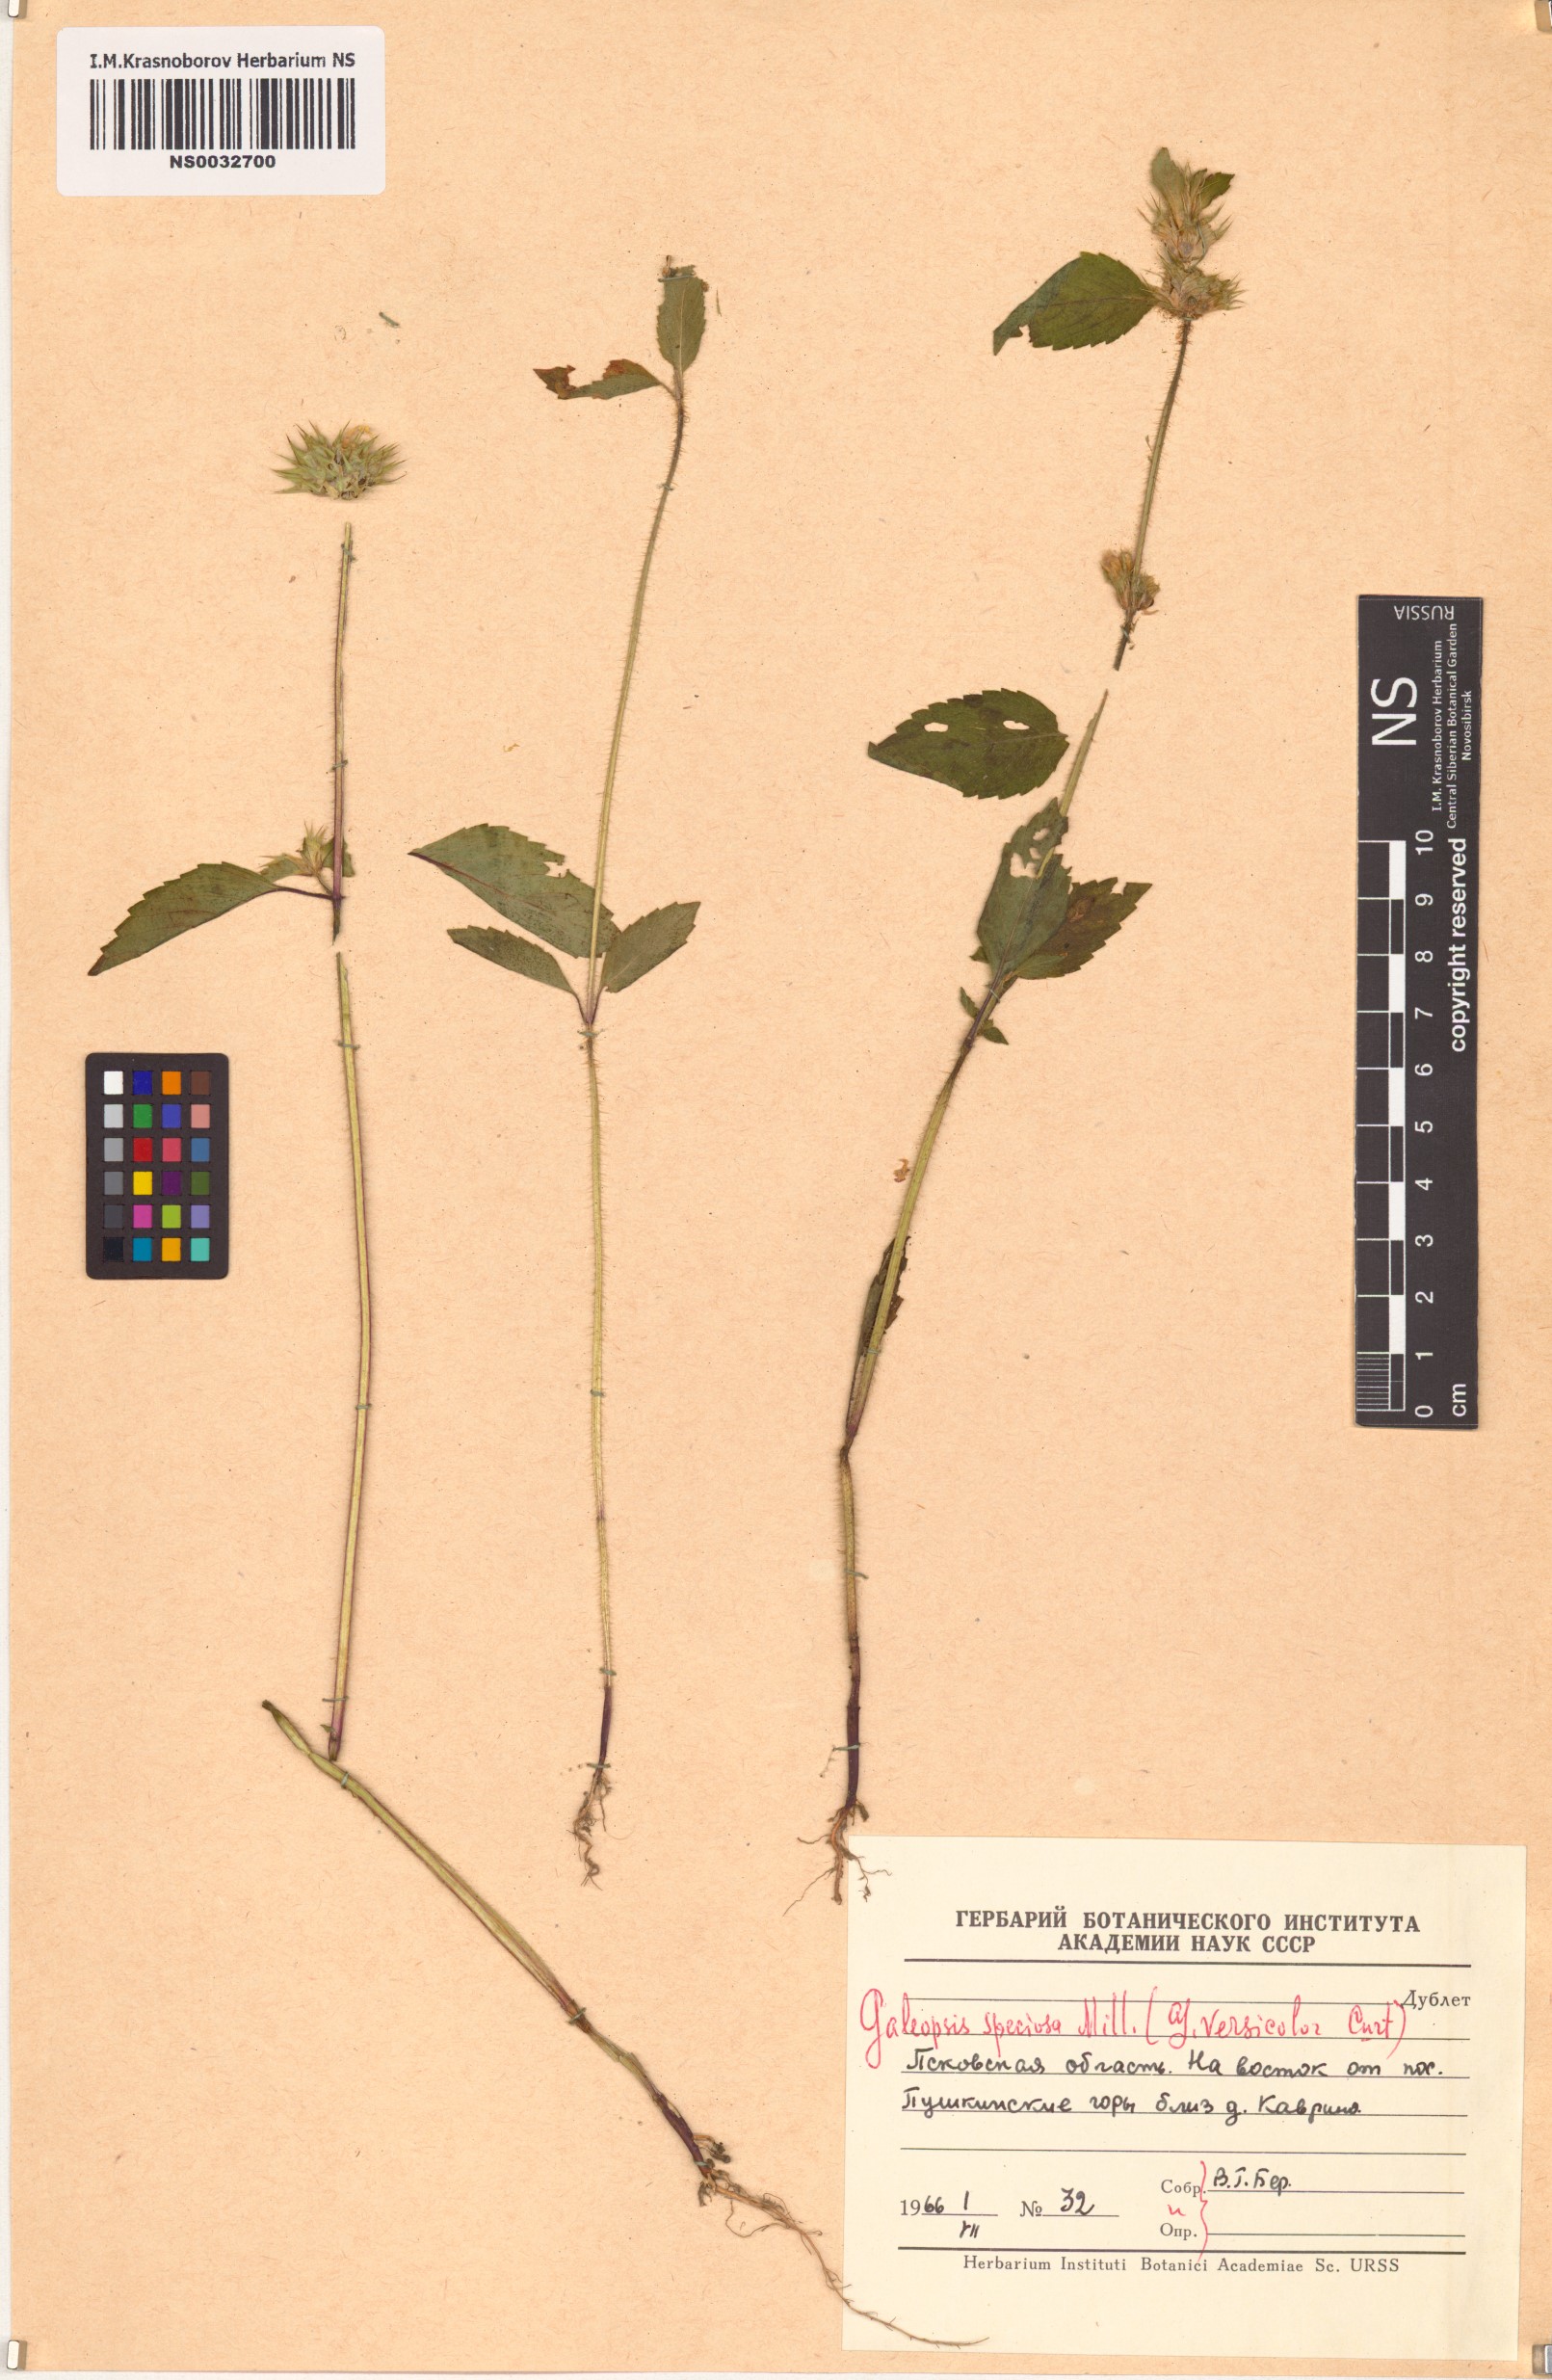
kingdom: Plantae
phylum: Tracheophyta
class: Magnoliopsida
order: Lamiales
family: Lamiaceae
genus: Galeopsis
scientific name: Galeopsis speciosa
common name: Large-flowered hemp-nettle
